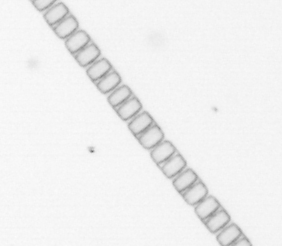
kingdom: Chromista
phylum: Ochrophyta
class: Bacillariophyceae
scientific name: Bacillariophyceae
